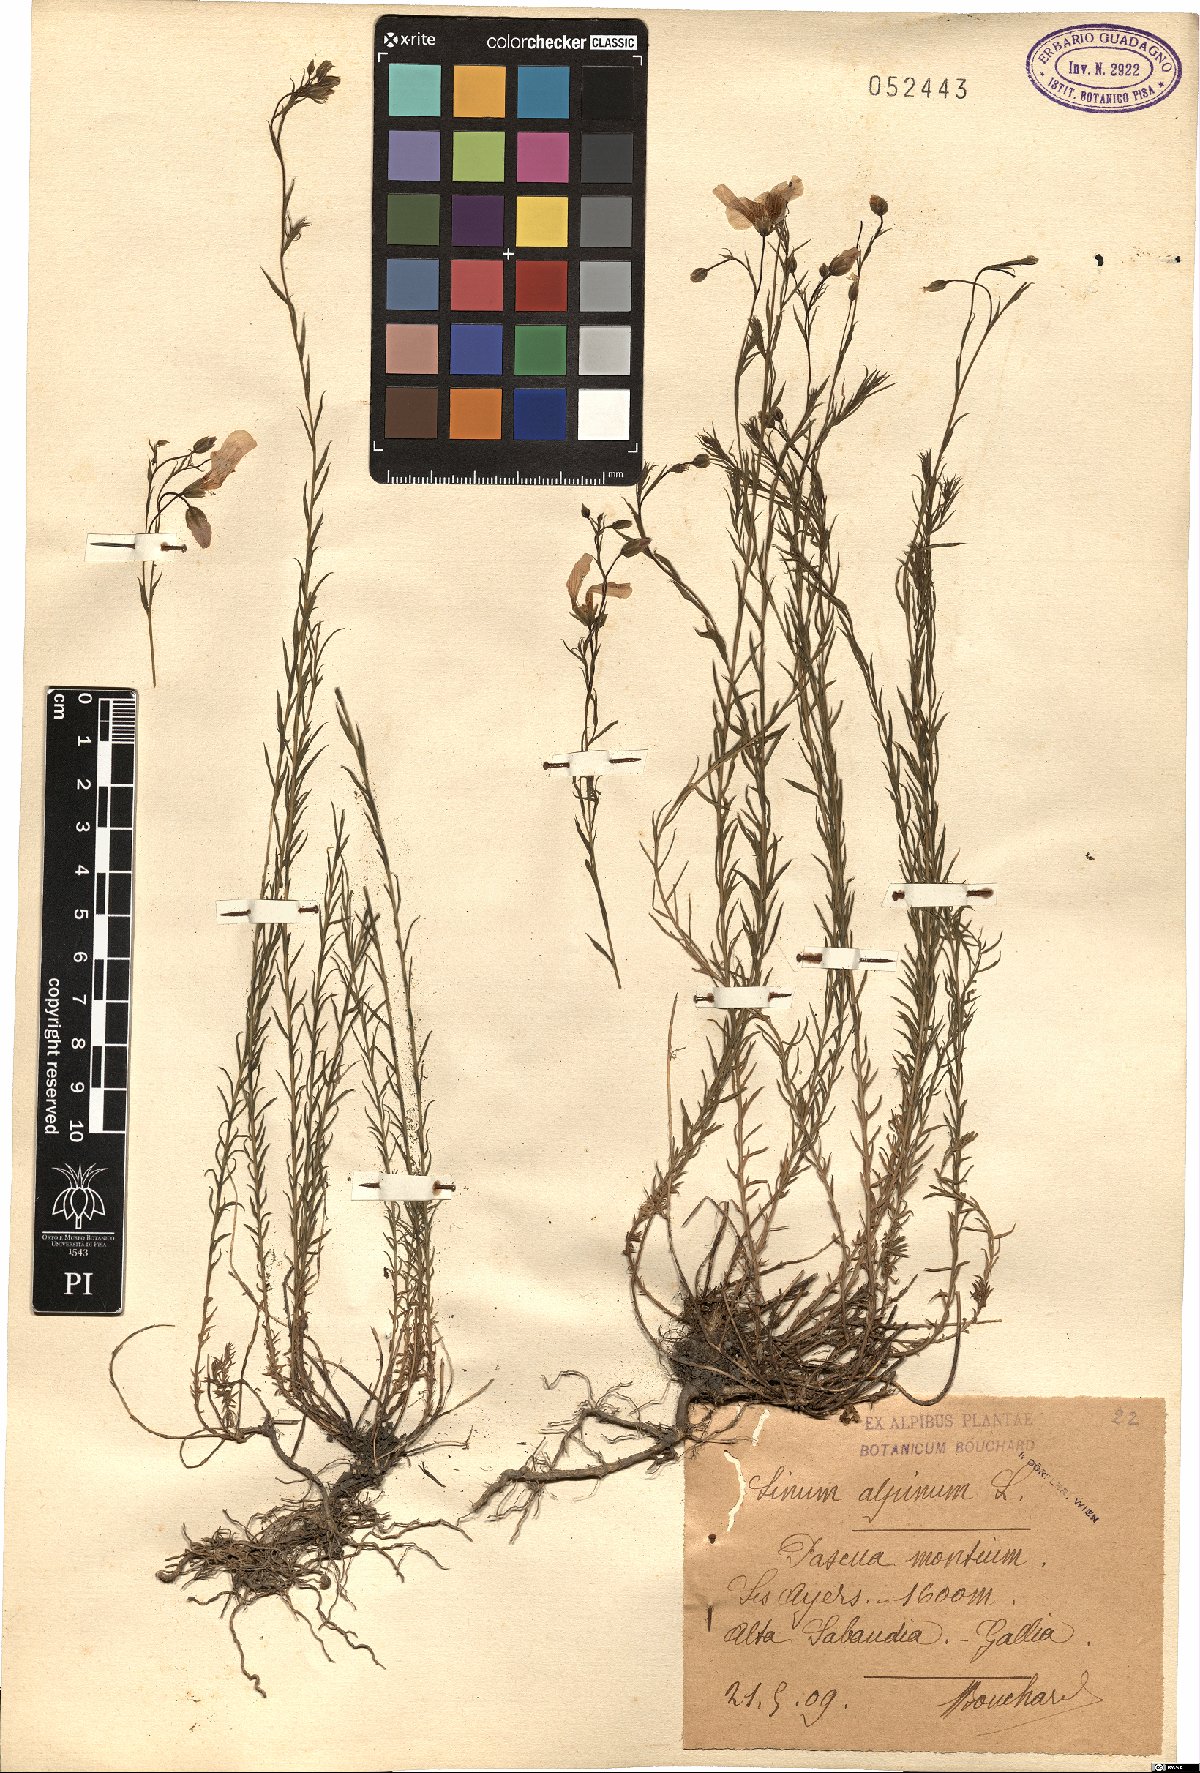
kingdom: Plantae
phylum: Tracheophyta
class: Magnoliopsida
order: Malpighiales
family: Linaceae
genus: Linum
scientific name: Linum alpinum
